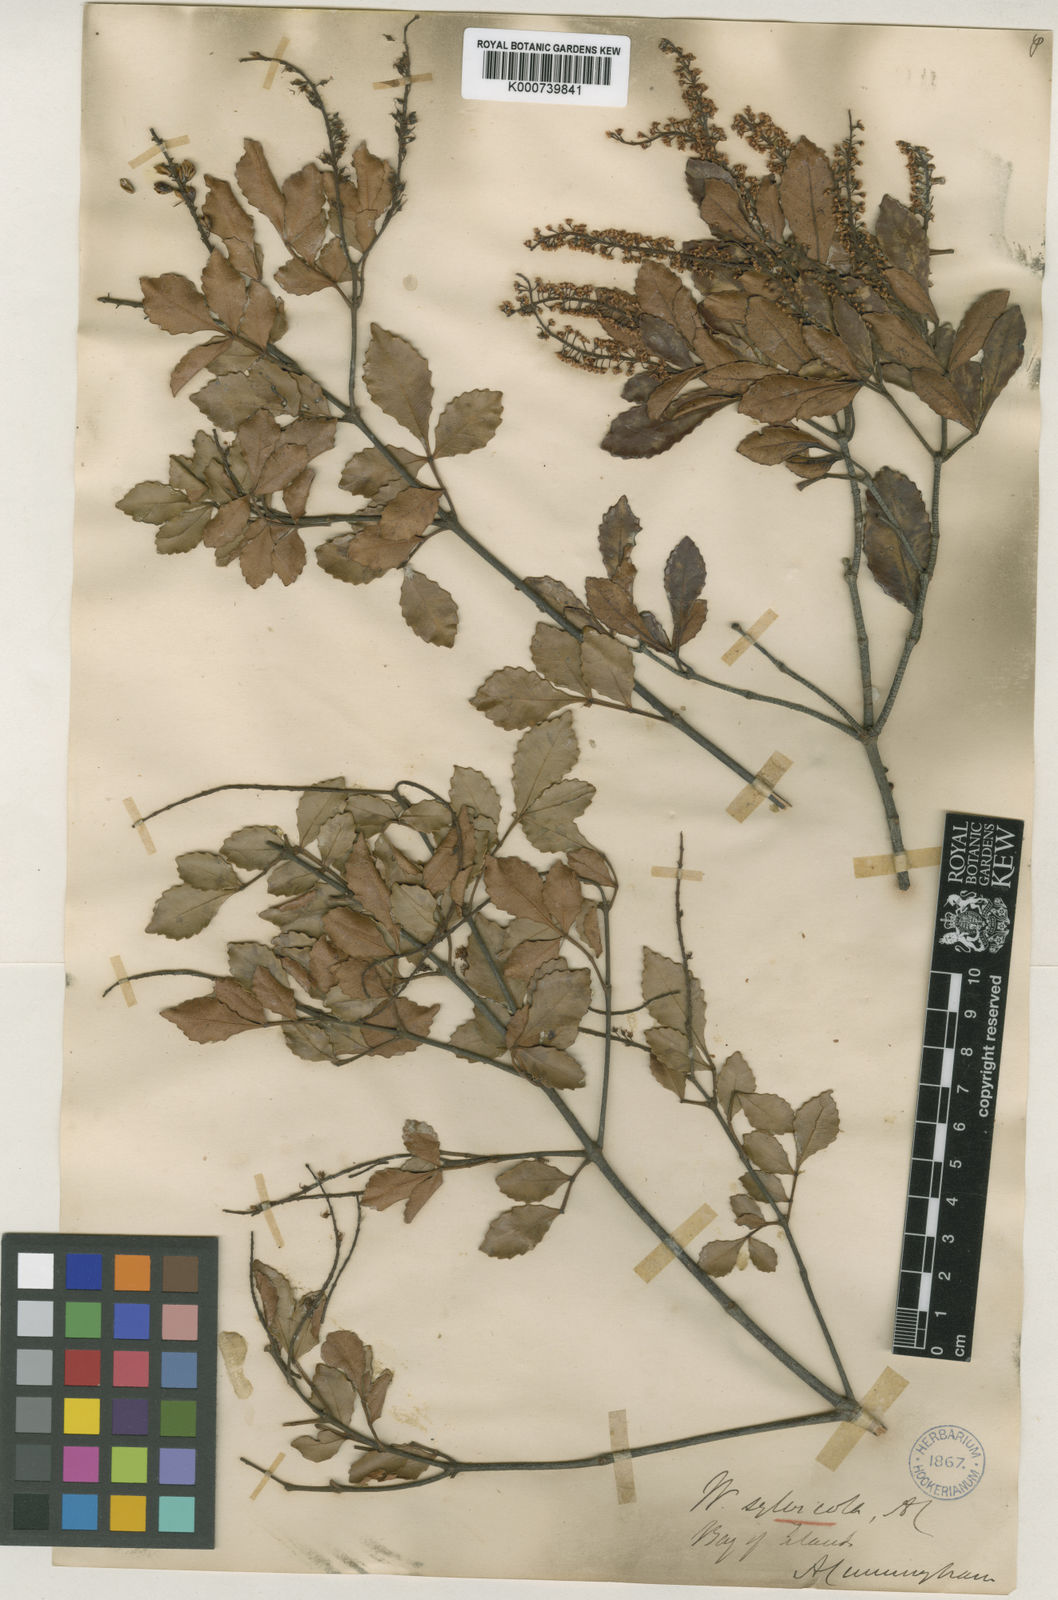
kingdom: Plantae
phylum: Tracheophyta
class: Magnoliopsida
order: Oxalidales
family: Cunoniaceae
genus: Pterophylla
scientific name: Pterophylla sylvicola
